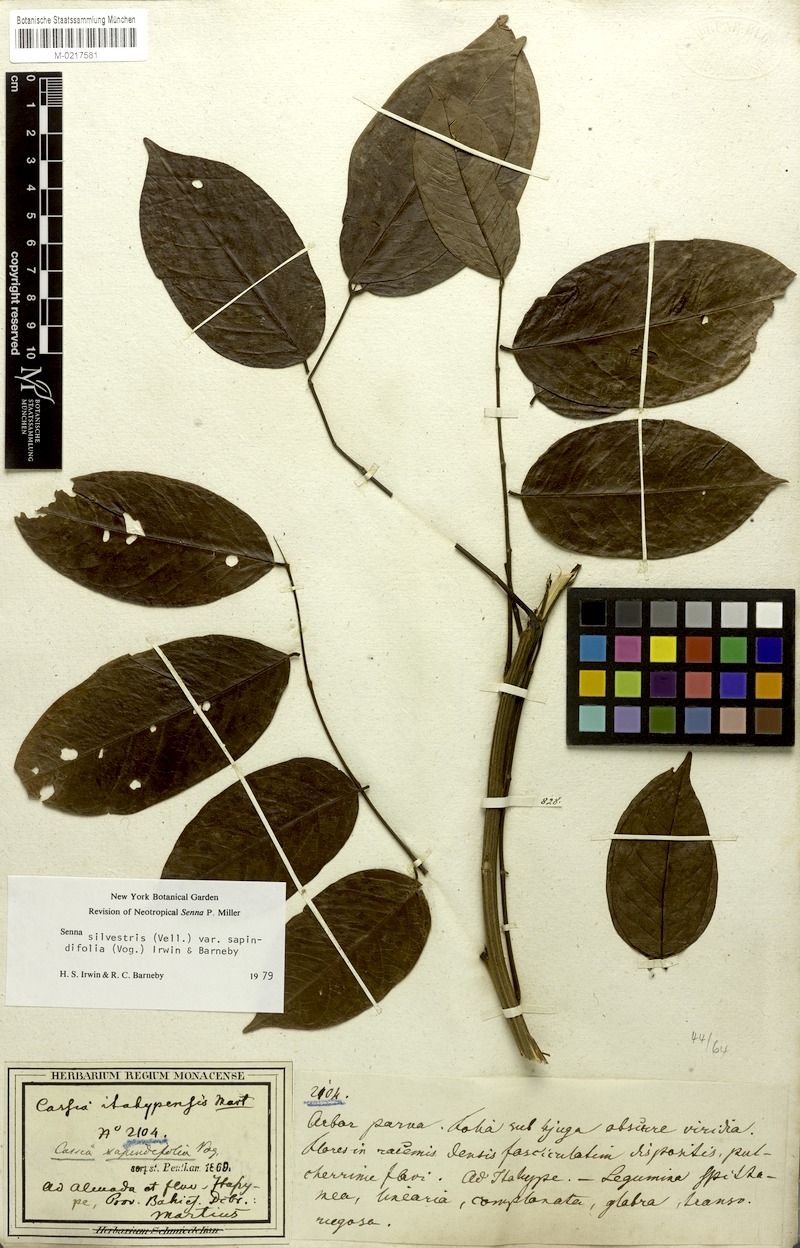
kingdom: Plantae
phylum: Tracheophyta
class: Magnoliopsida
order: Fabales
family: Fabaceae
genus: Senna
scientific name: Senna silvestris
